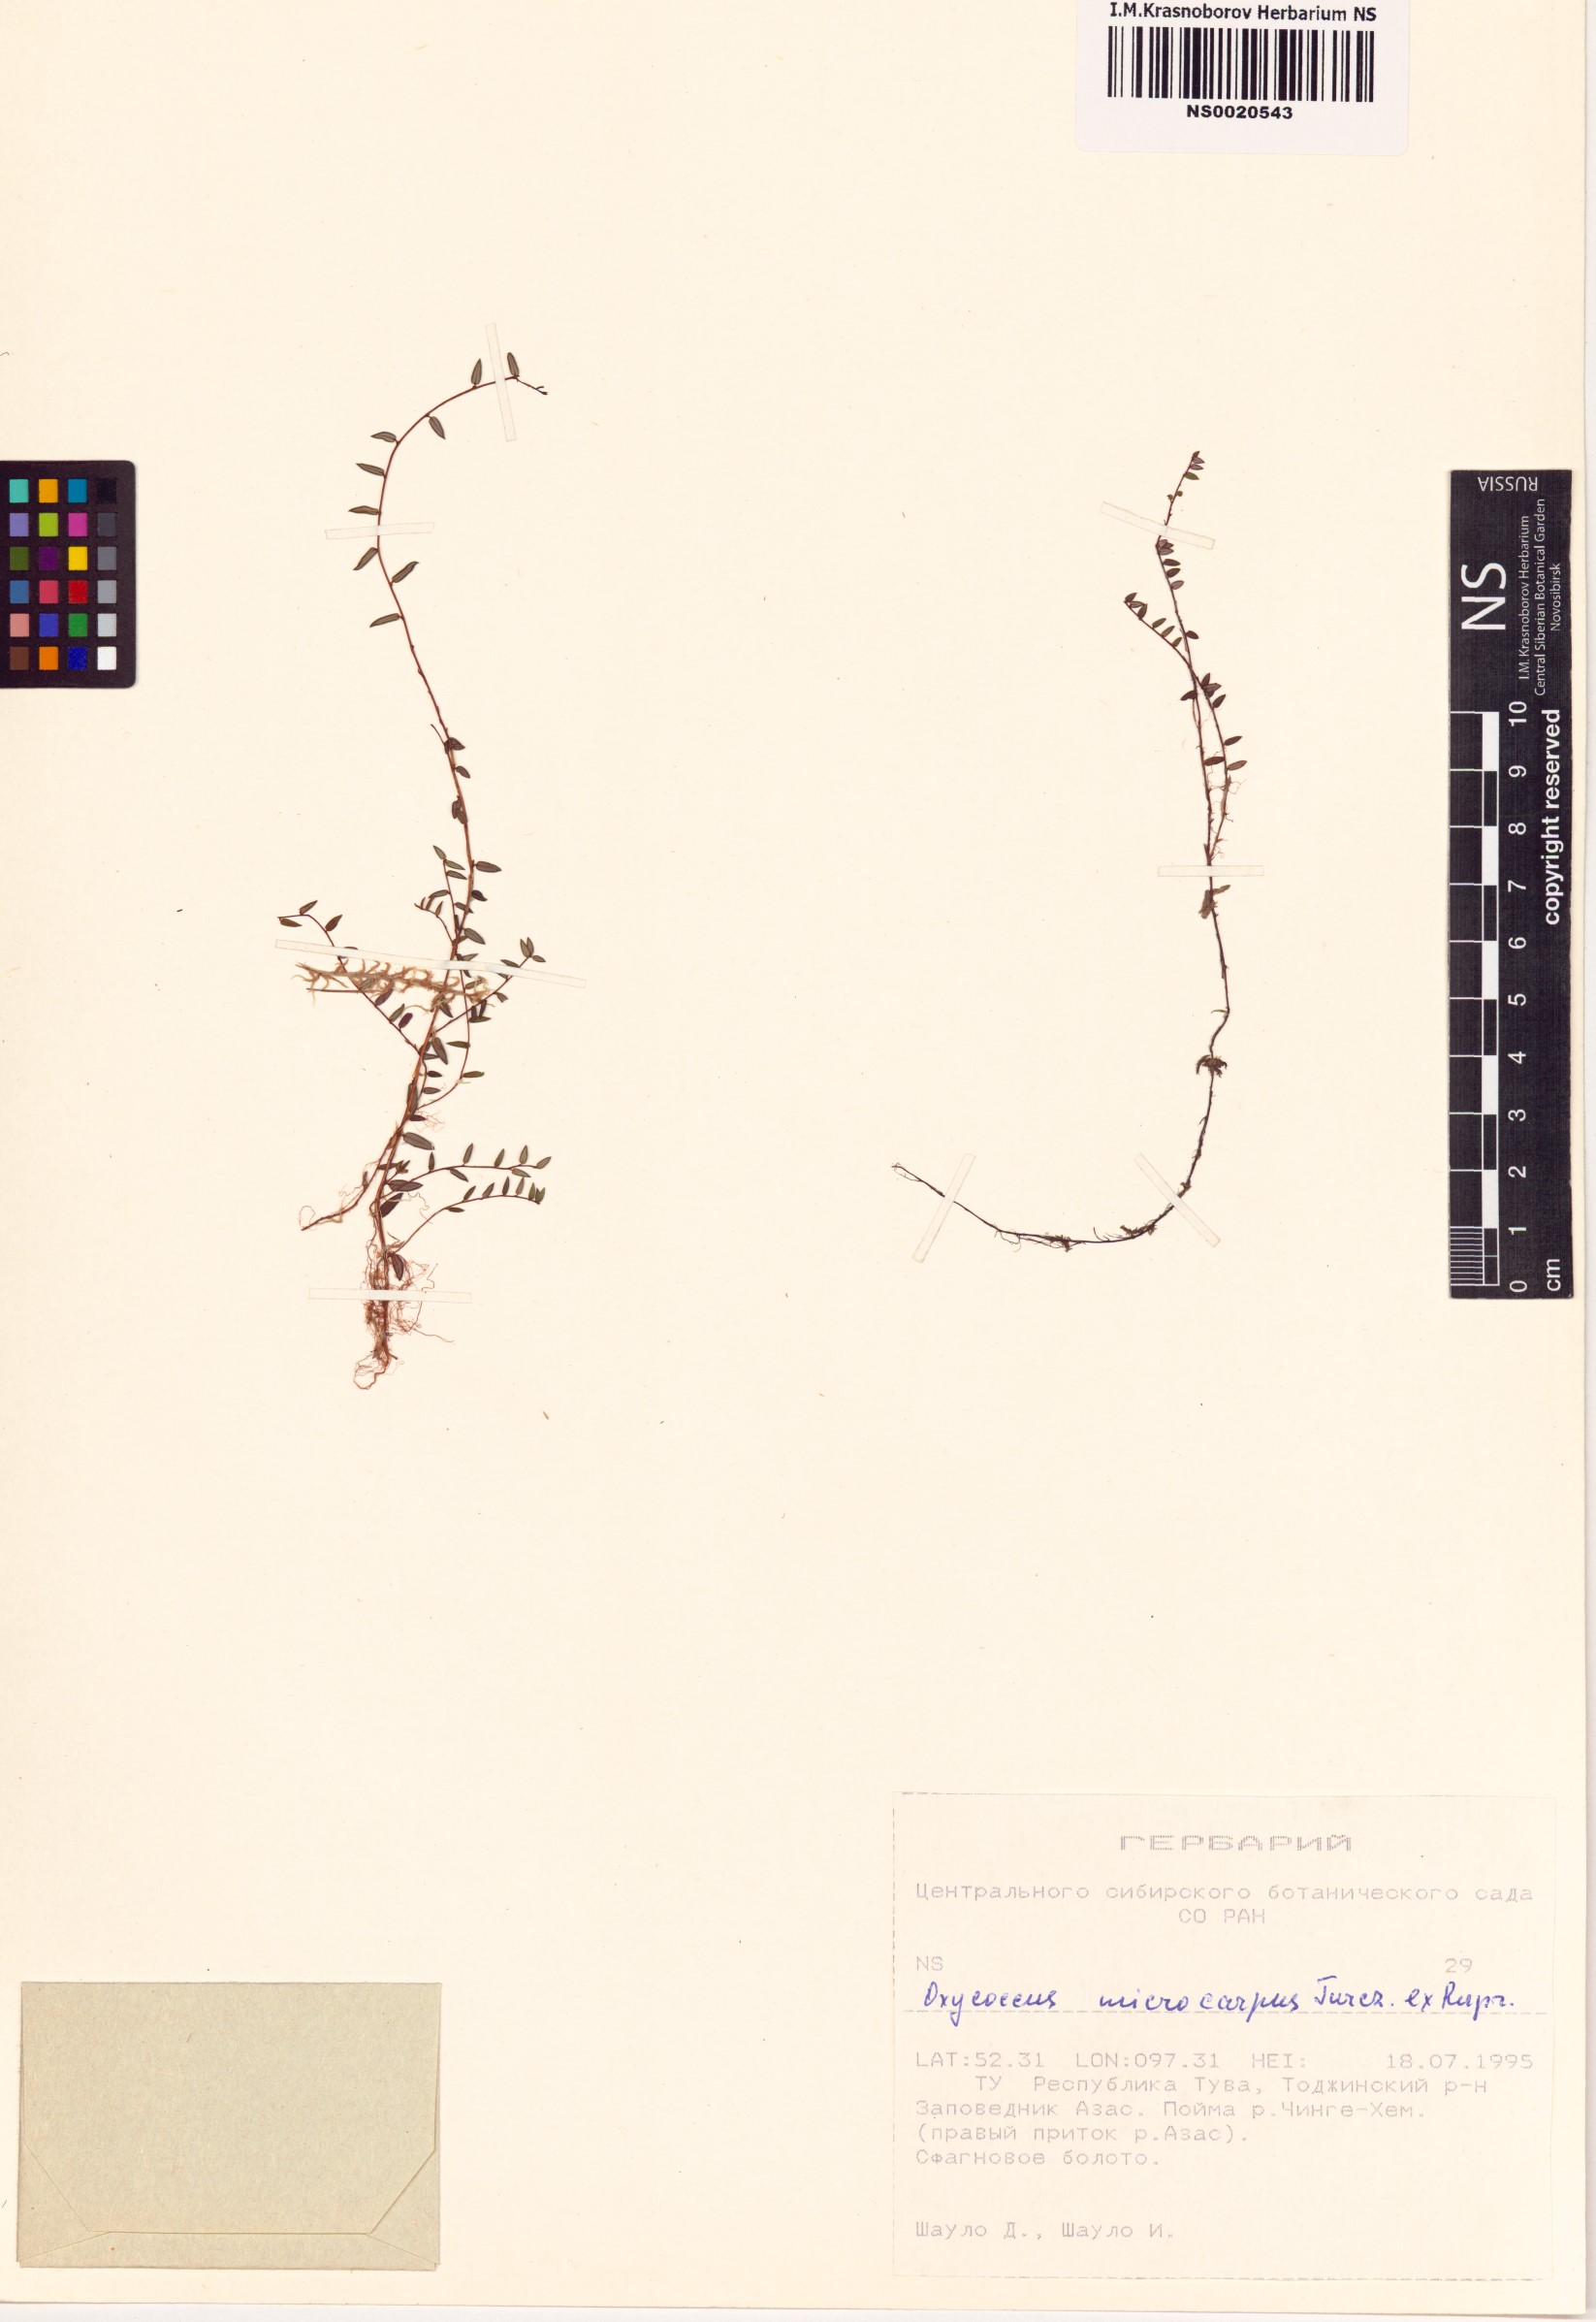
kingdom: Plantae
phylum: Tracheophyta
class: Magnoliopsida
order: Ericales
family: Ericaceae
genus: Vaccinium
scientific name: Vaccinium microcarpum
